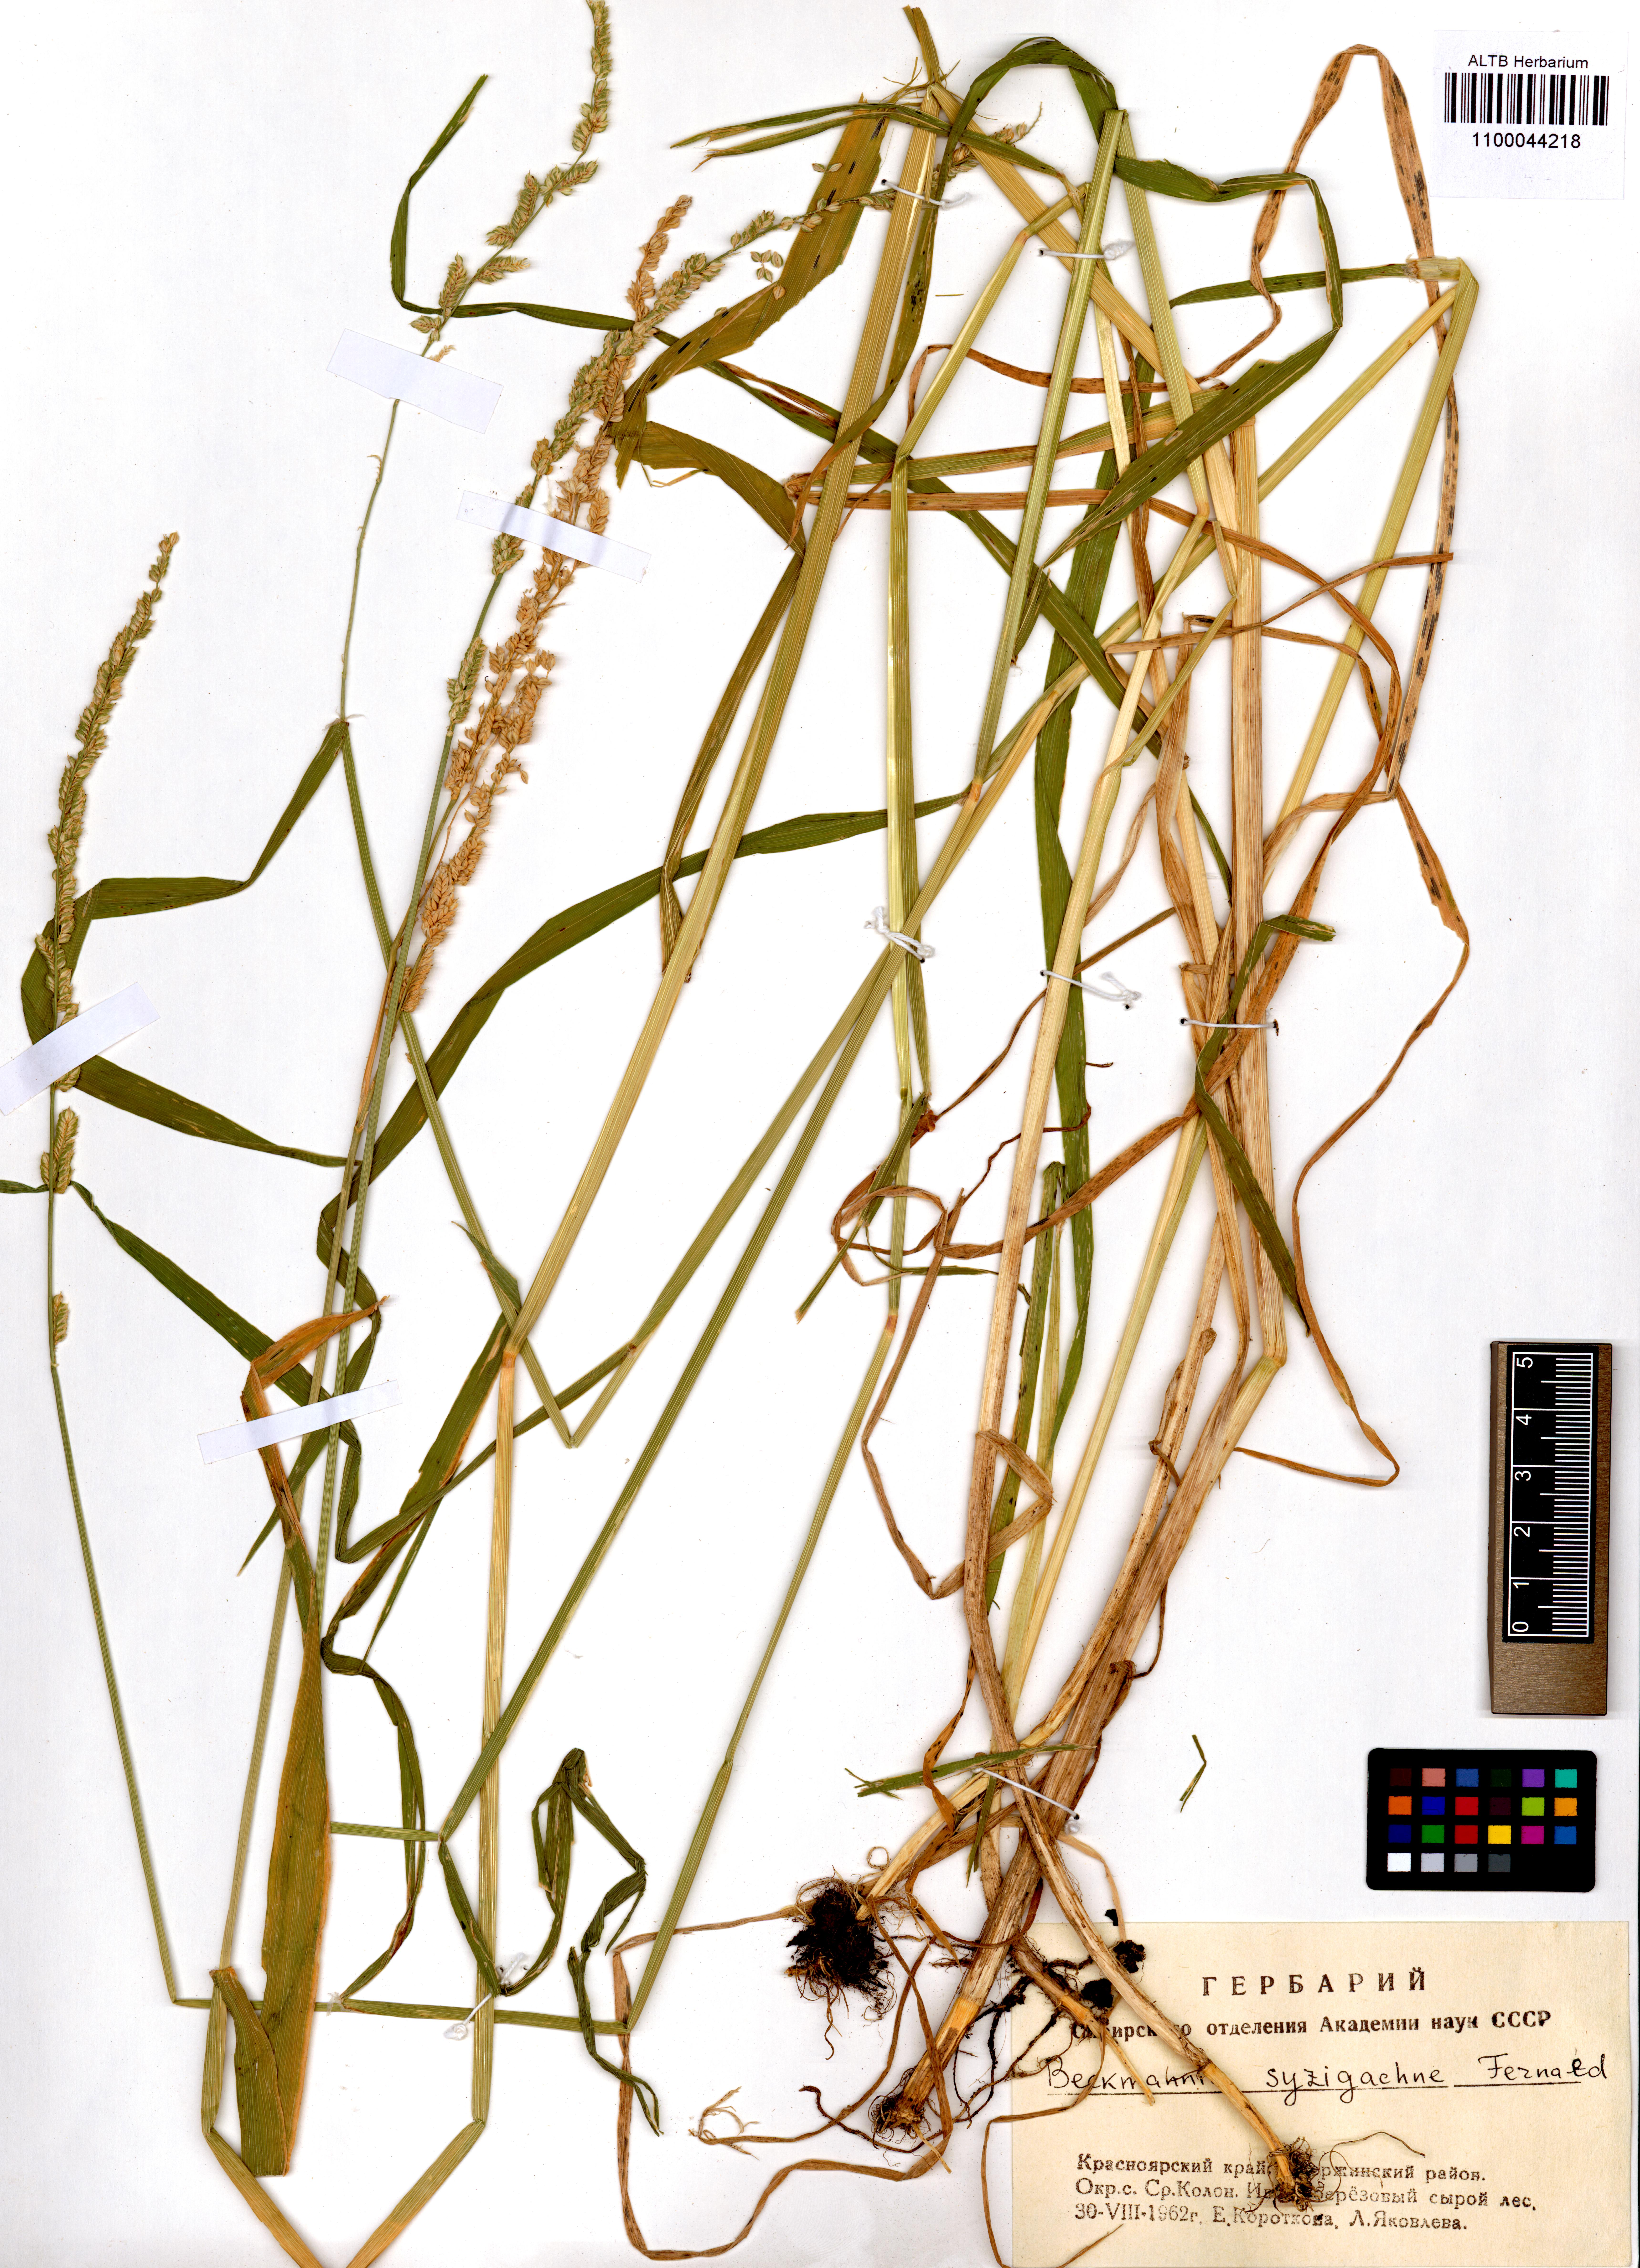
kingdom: Plantae
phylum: Tracheophyta
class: Liliopsida
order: Poales
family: Poaceae
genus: Beckmannia
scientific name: Beckmannia syzigachne
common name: American slough-grass
